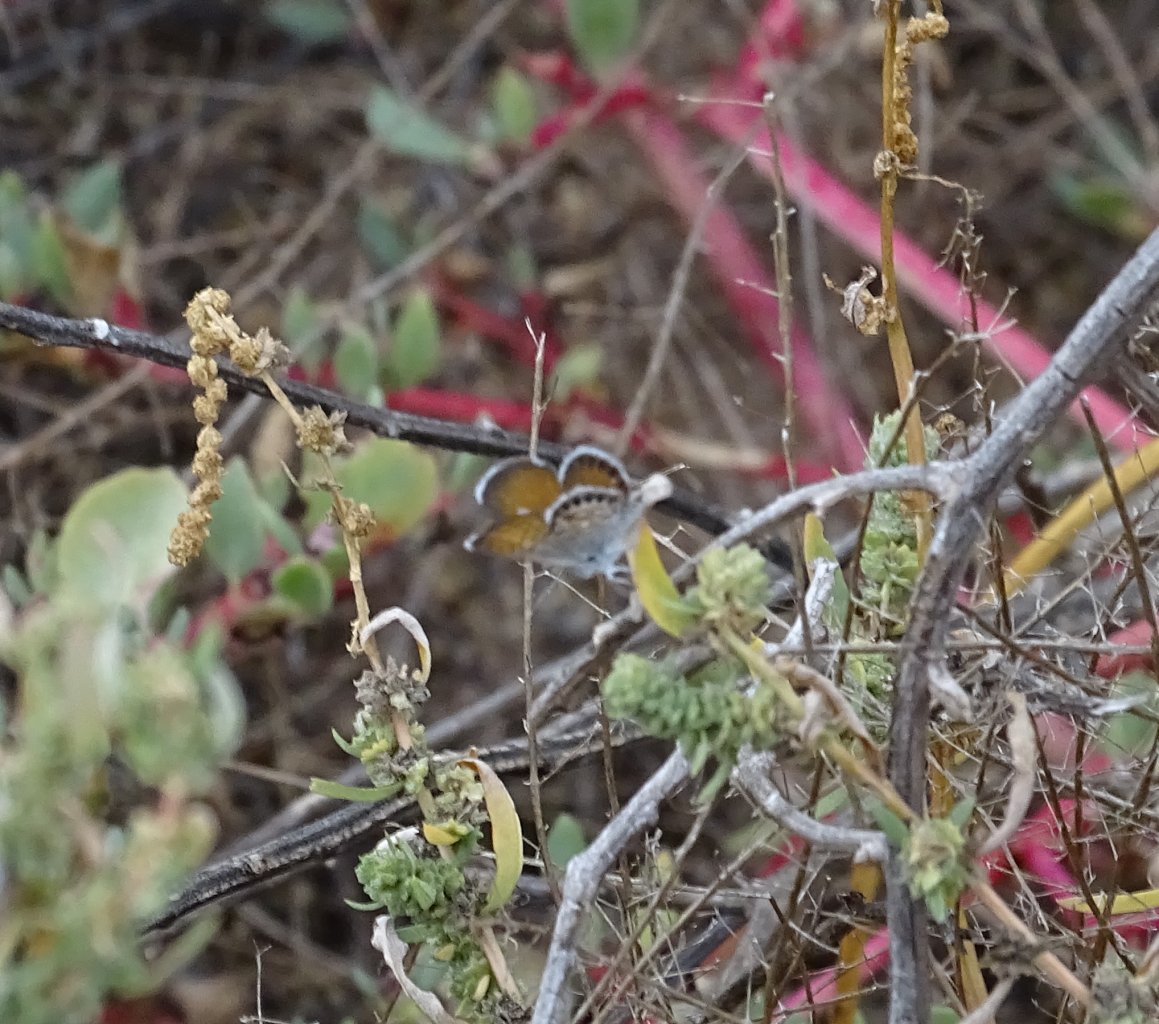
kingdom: Animalia
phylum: Arthropoda
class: Insecta
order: Lepidoptera
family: Lycaenidae
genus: Brephidium
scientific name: Brephidium exilis
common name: Western Pygmy-Blue
